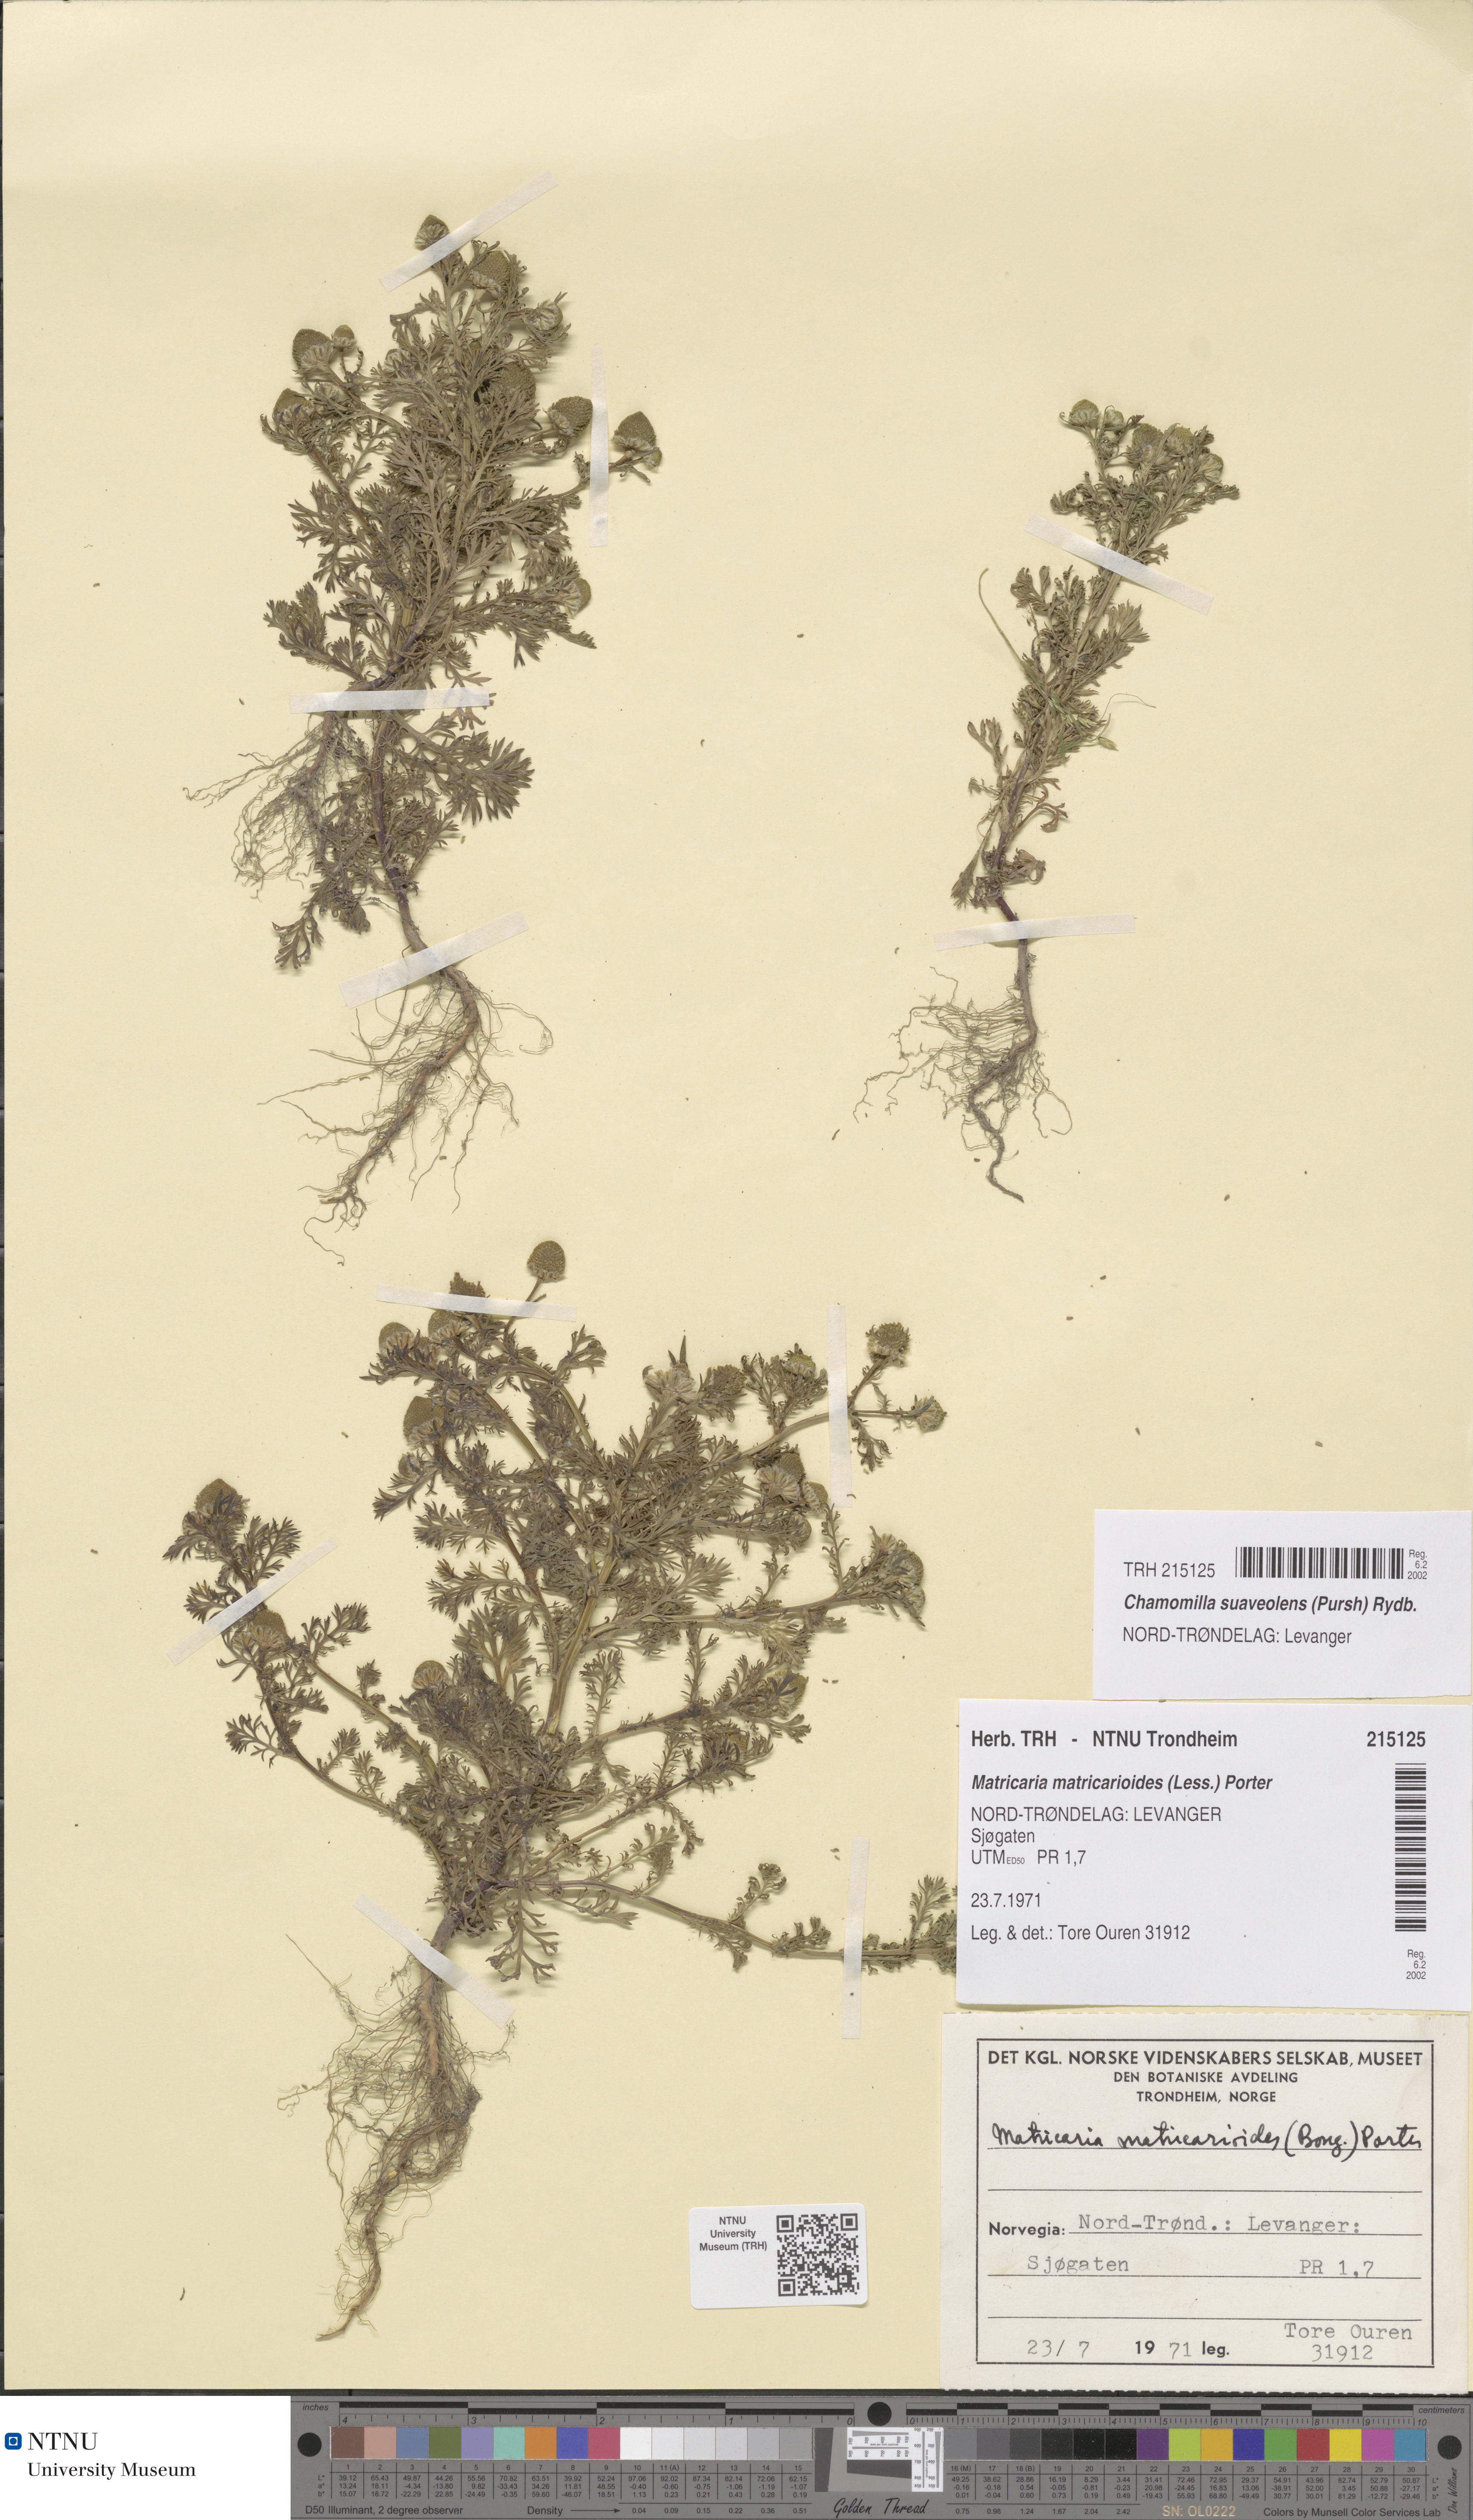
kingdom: Plantae
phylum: Tracheophyta
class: Magnoliopsida
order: Asterales
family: Asteraceae
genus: Matricaria
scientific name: Matricaria discoidea
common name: Disc mayweed
